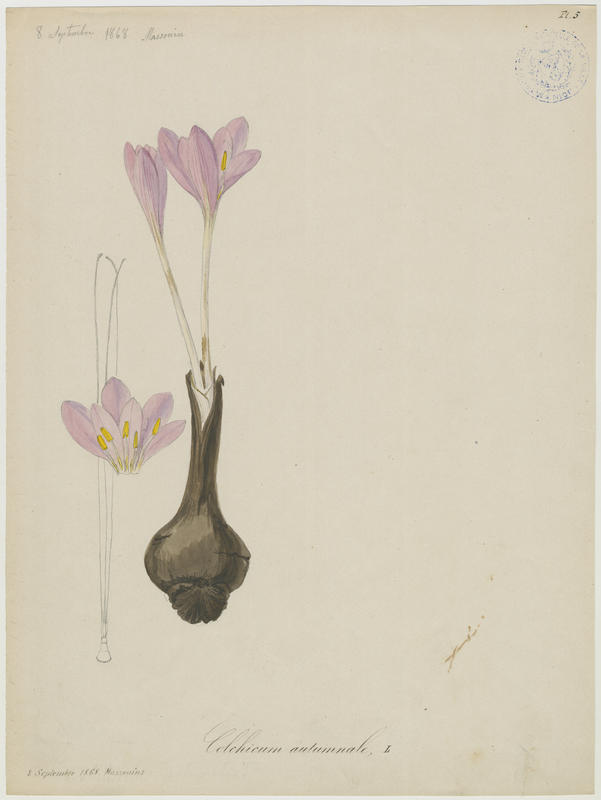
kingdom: Plantae
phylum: Tracheophyta
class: Liliopsida
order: Liliales
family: Colchicaceae
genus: Colchicum
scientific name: Colchicum autumnale
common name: Autumn crocus
